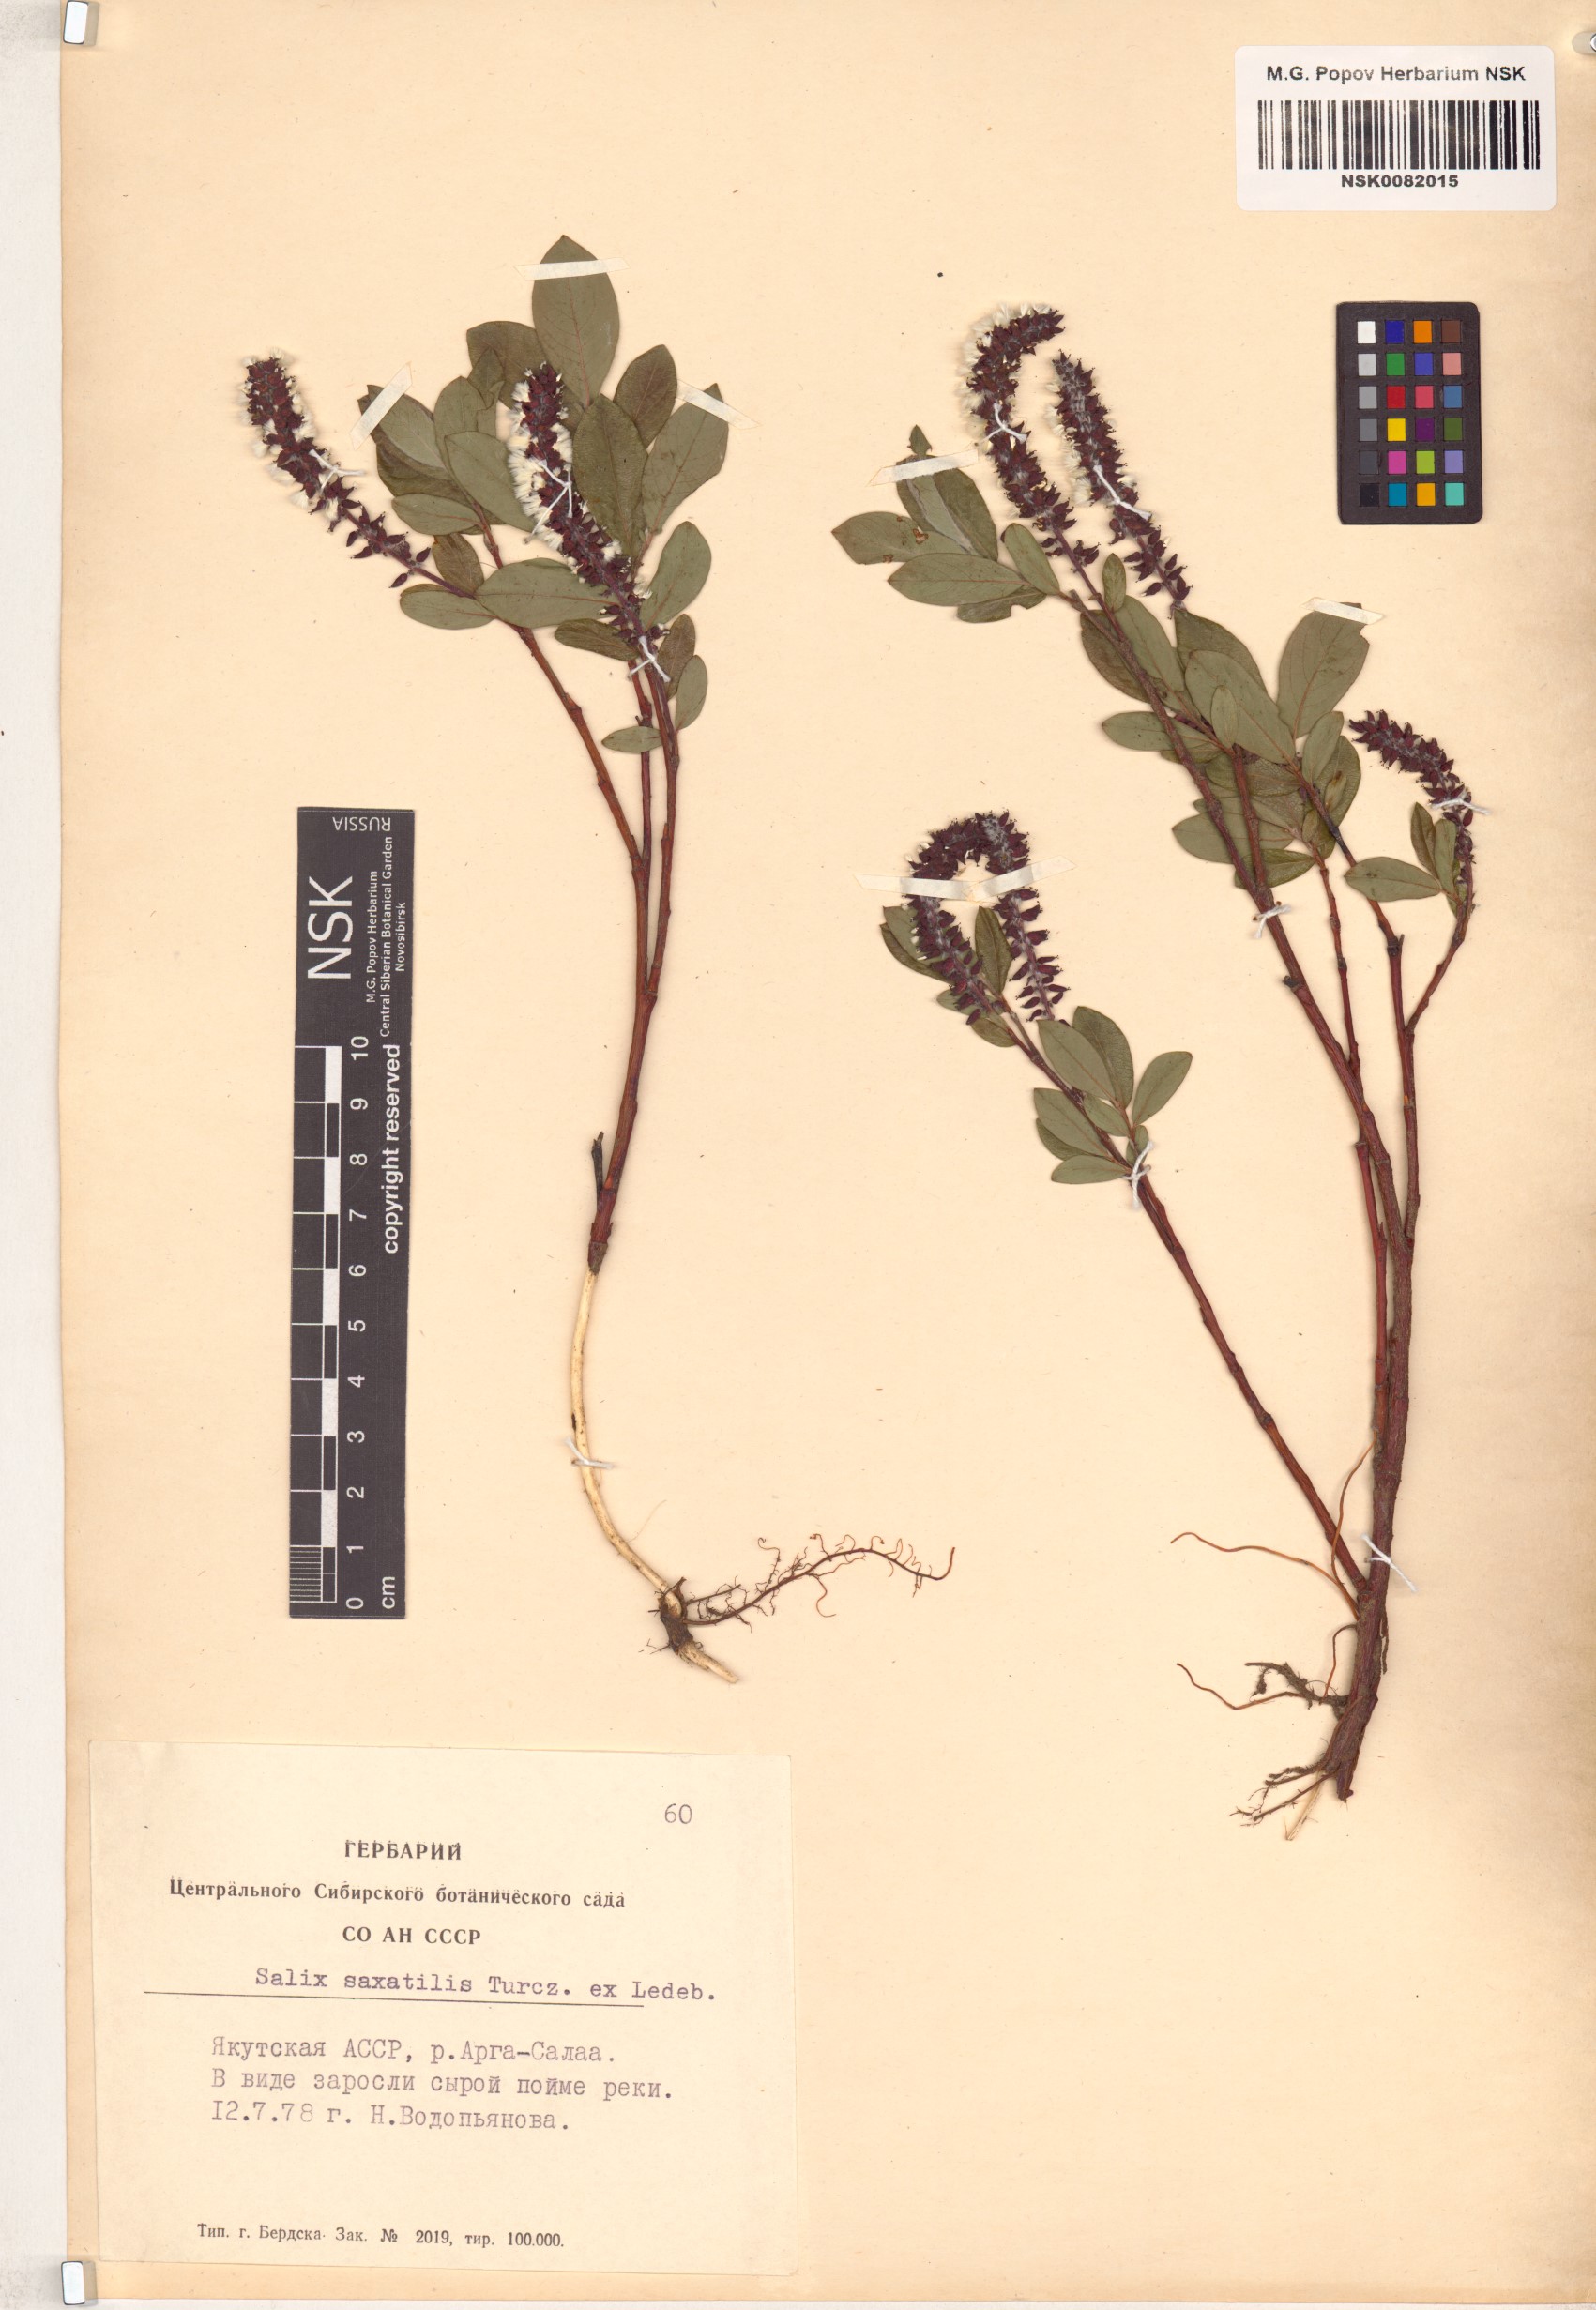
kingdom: Plantae
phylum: Tracheophyta
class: Magnoliopsida
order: Malpighiales
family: Salicaceae
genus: Salix
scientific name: Salix saxatilis
